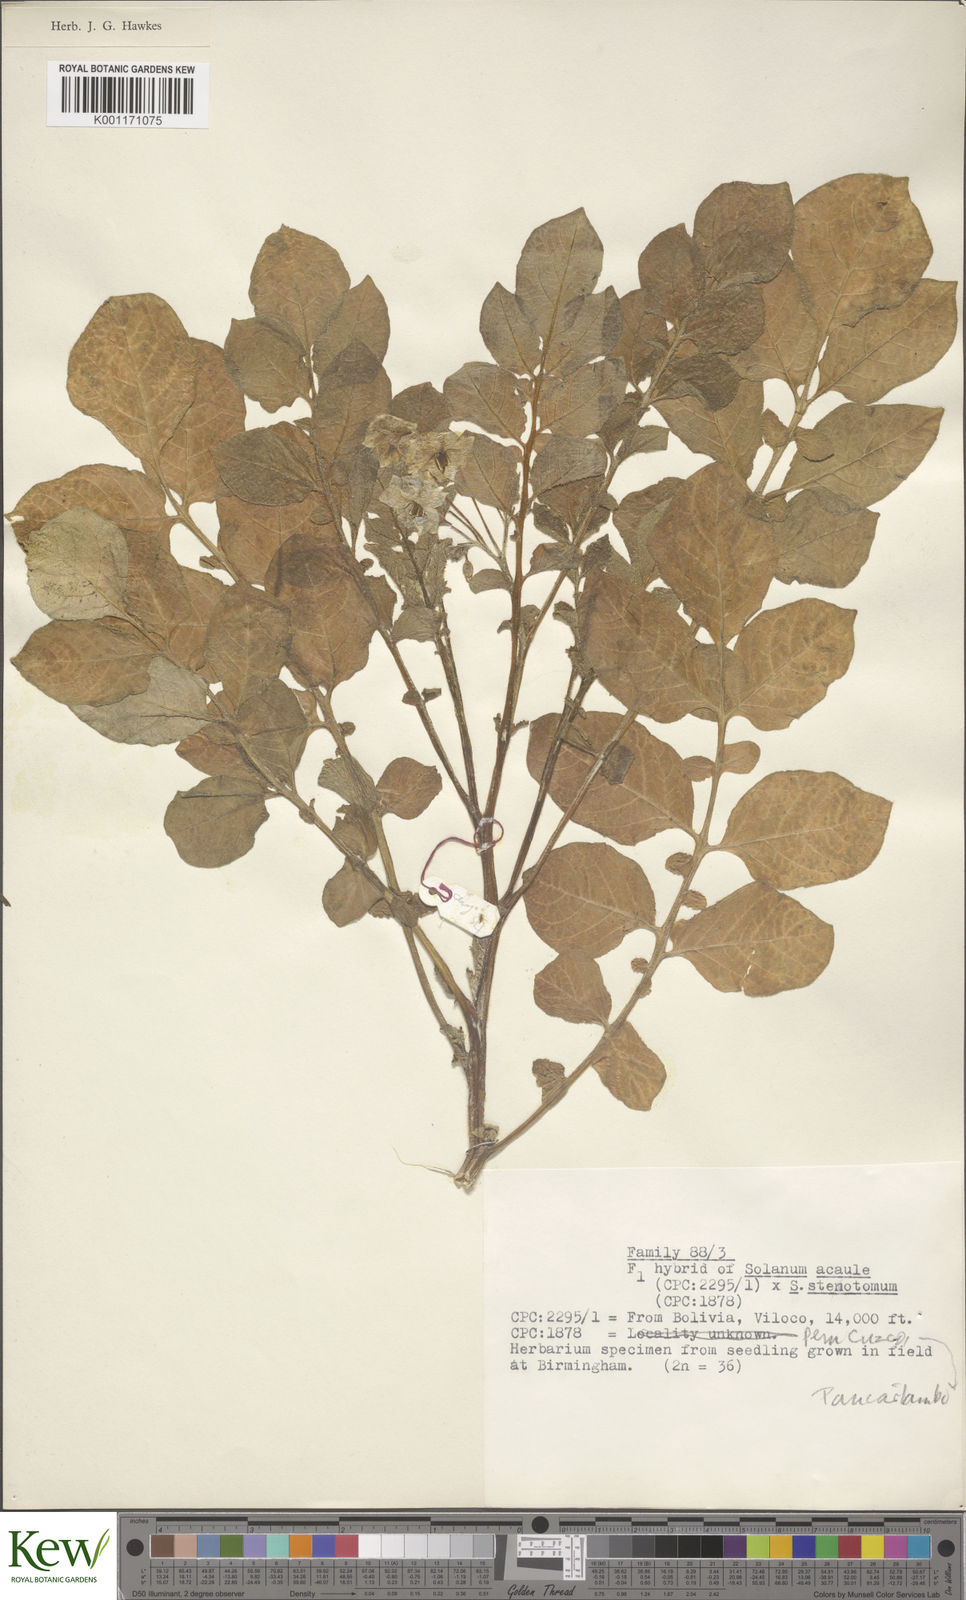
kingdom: Plantae
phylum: Tracheophyta
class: Magnoliopsida
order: Solanales
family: Solanaceae
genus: Solanum
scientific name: Solanum acaule
